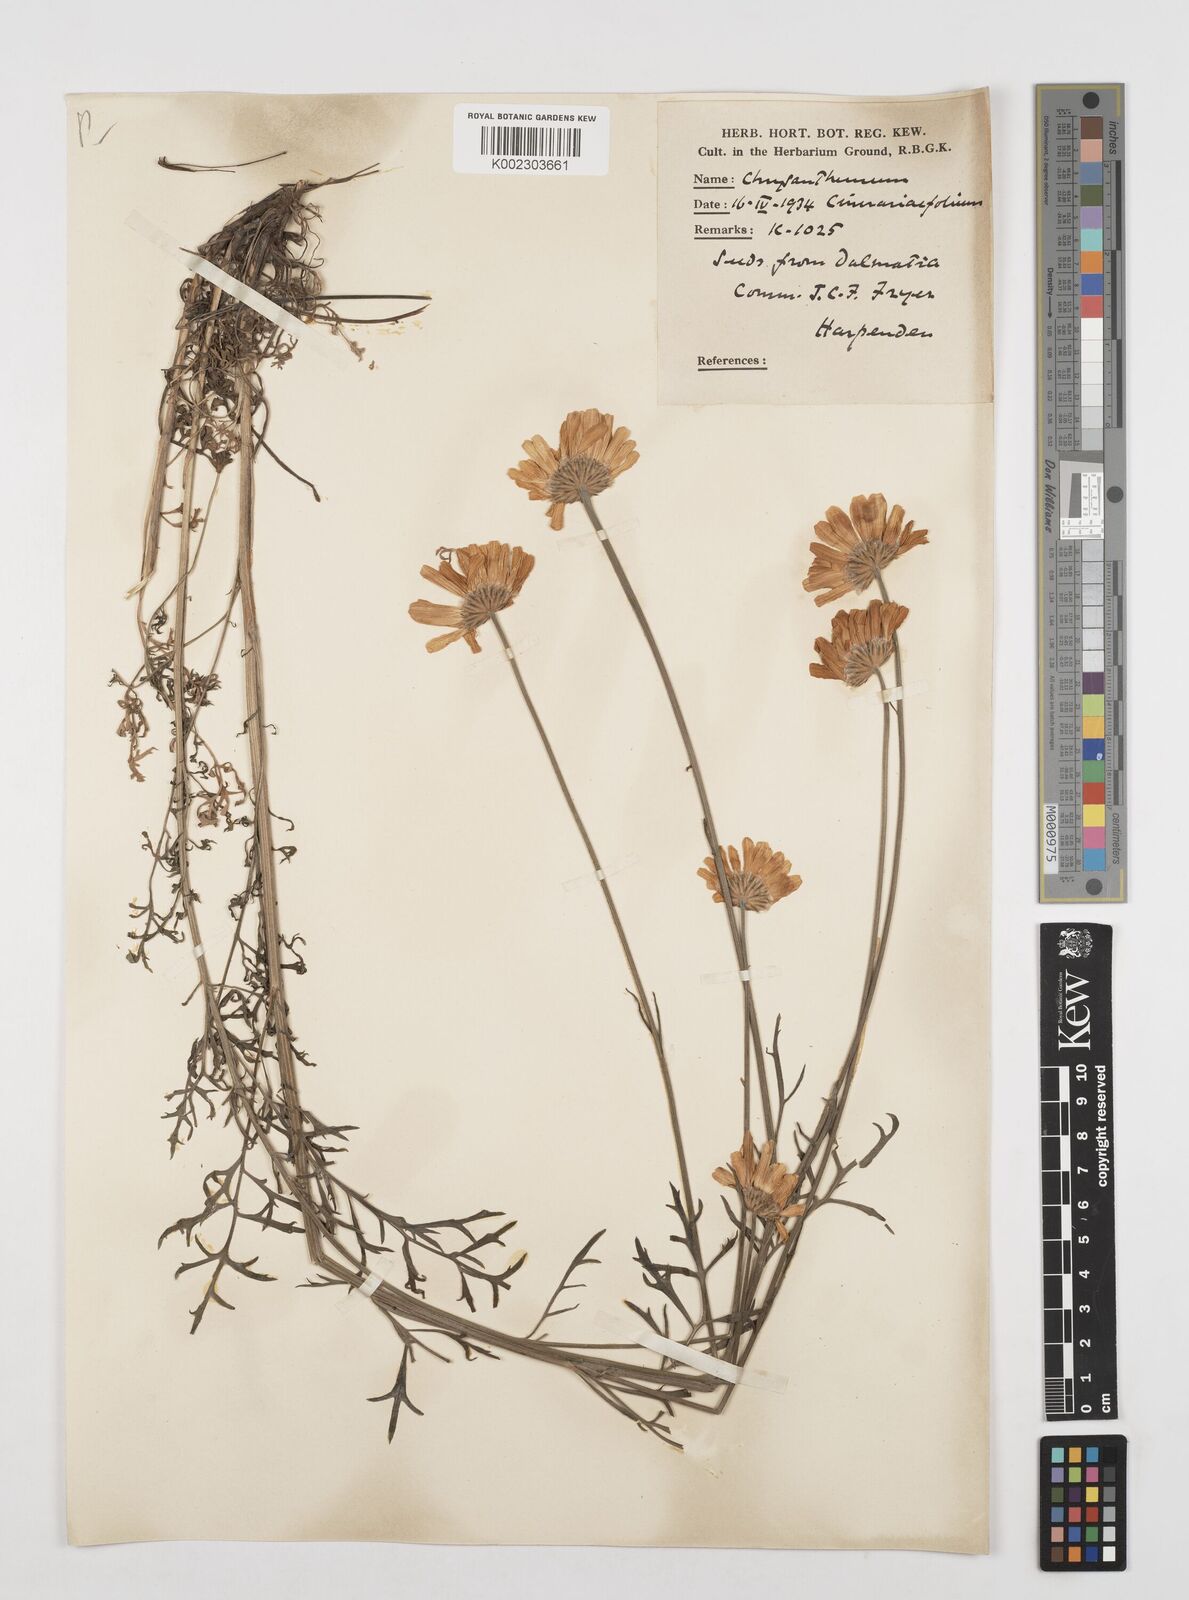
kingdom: Plantae
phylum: Tracheophyta
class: Magnoliopsida
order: Asterales
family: Asteraceae
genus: Tanacetum
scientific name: Tanacetum cinerariifolium
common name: Dalmatian pyrethrum
